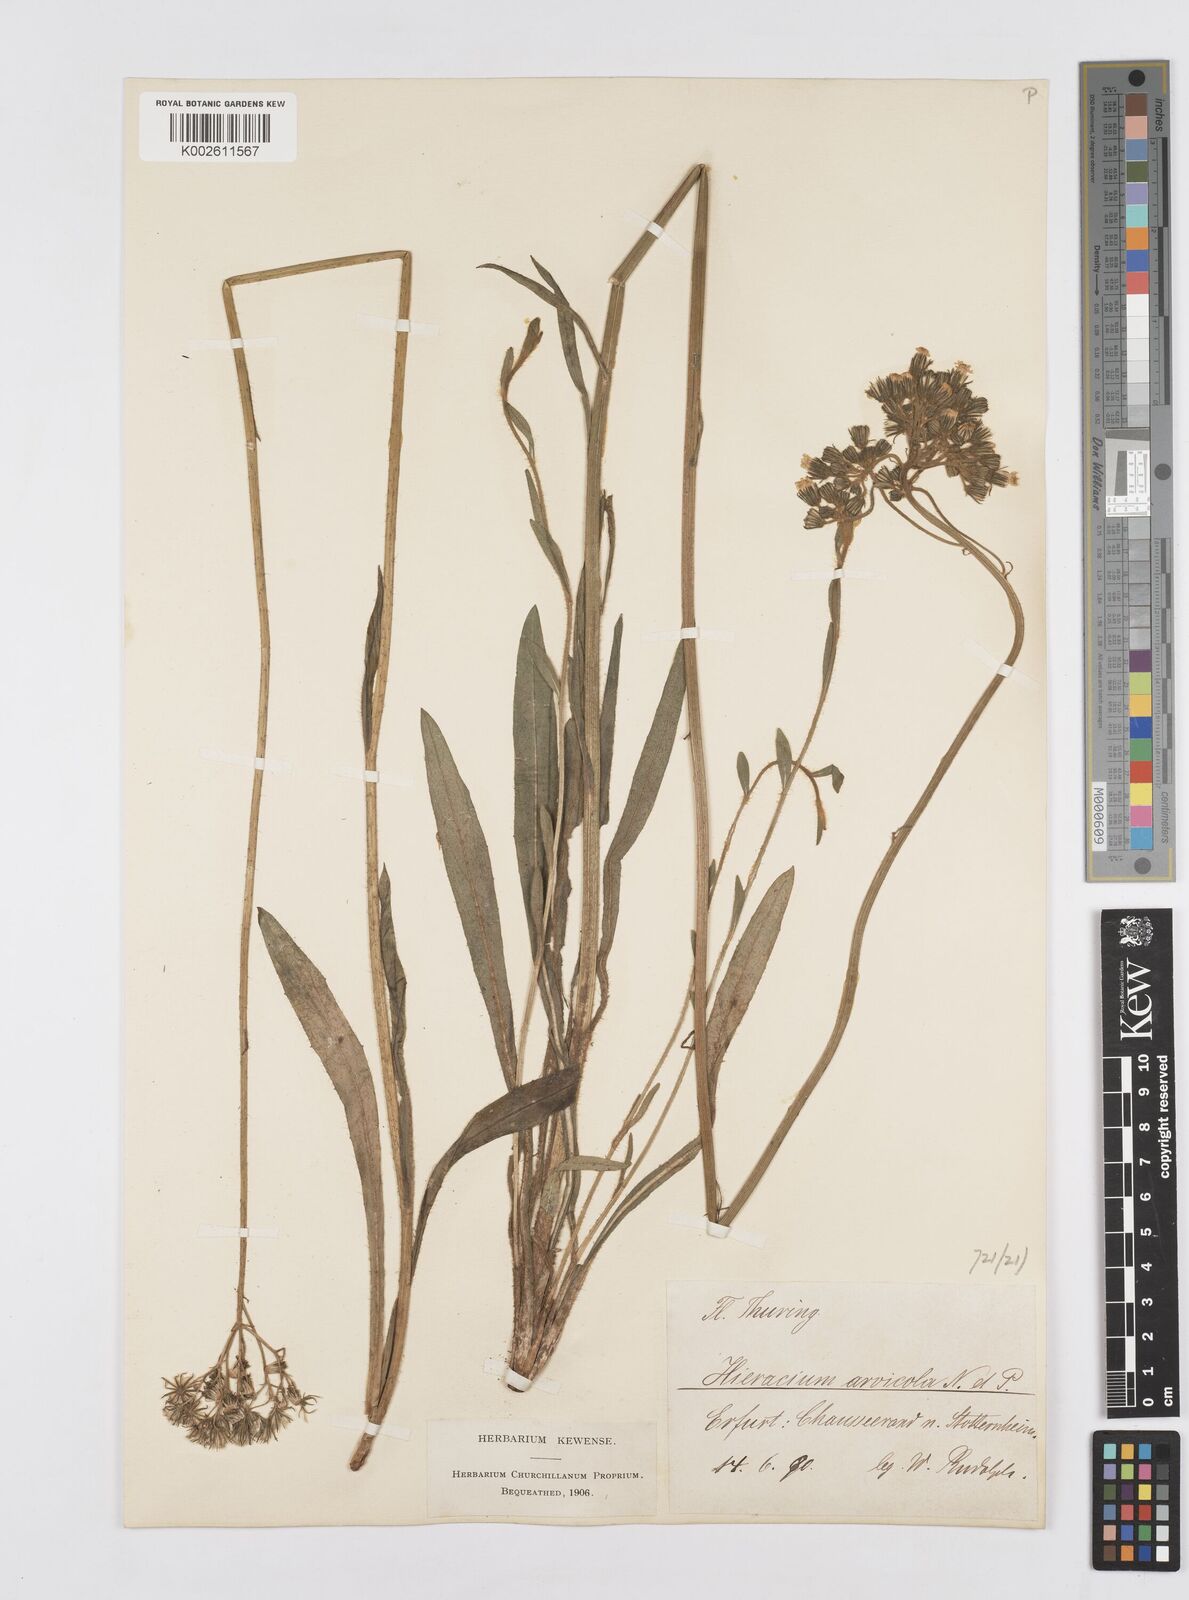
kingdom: Plantae
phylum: Tracheophyta
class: Magnoliopsida
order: Asterales
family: Asteraceae
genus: Pilosella
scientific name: Pilosella erythrochrista
